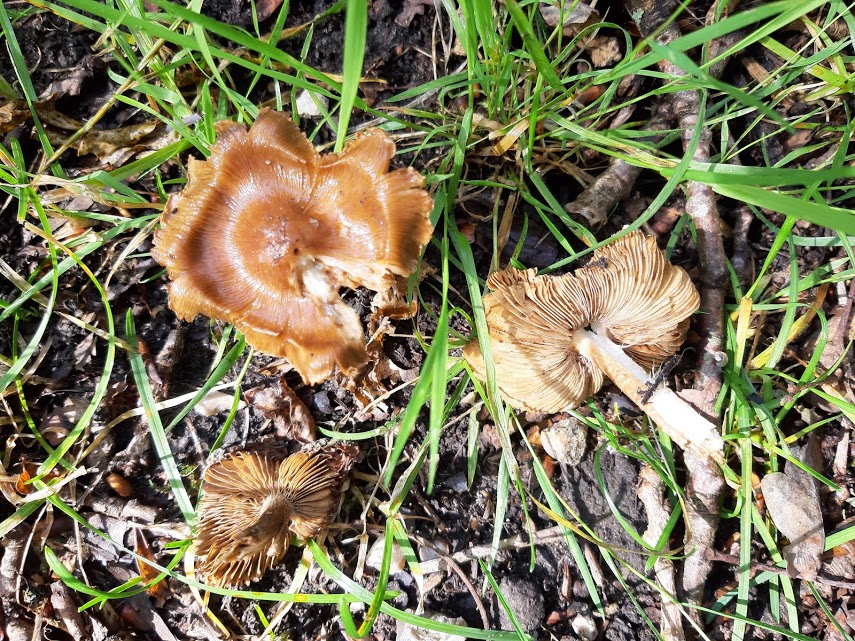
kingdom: Fungi
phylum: Basidiomycota
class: Agaricomycetes
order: Agaricales
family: Inocybaceae
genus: Inocybe
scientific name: Inocybe
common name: trævlhat
